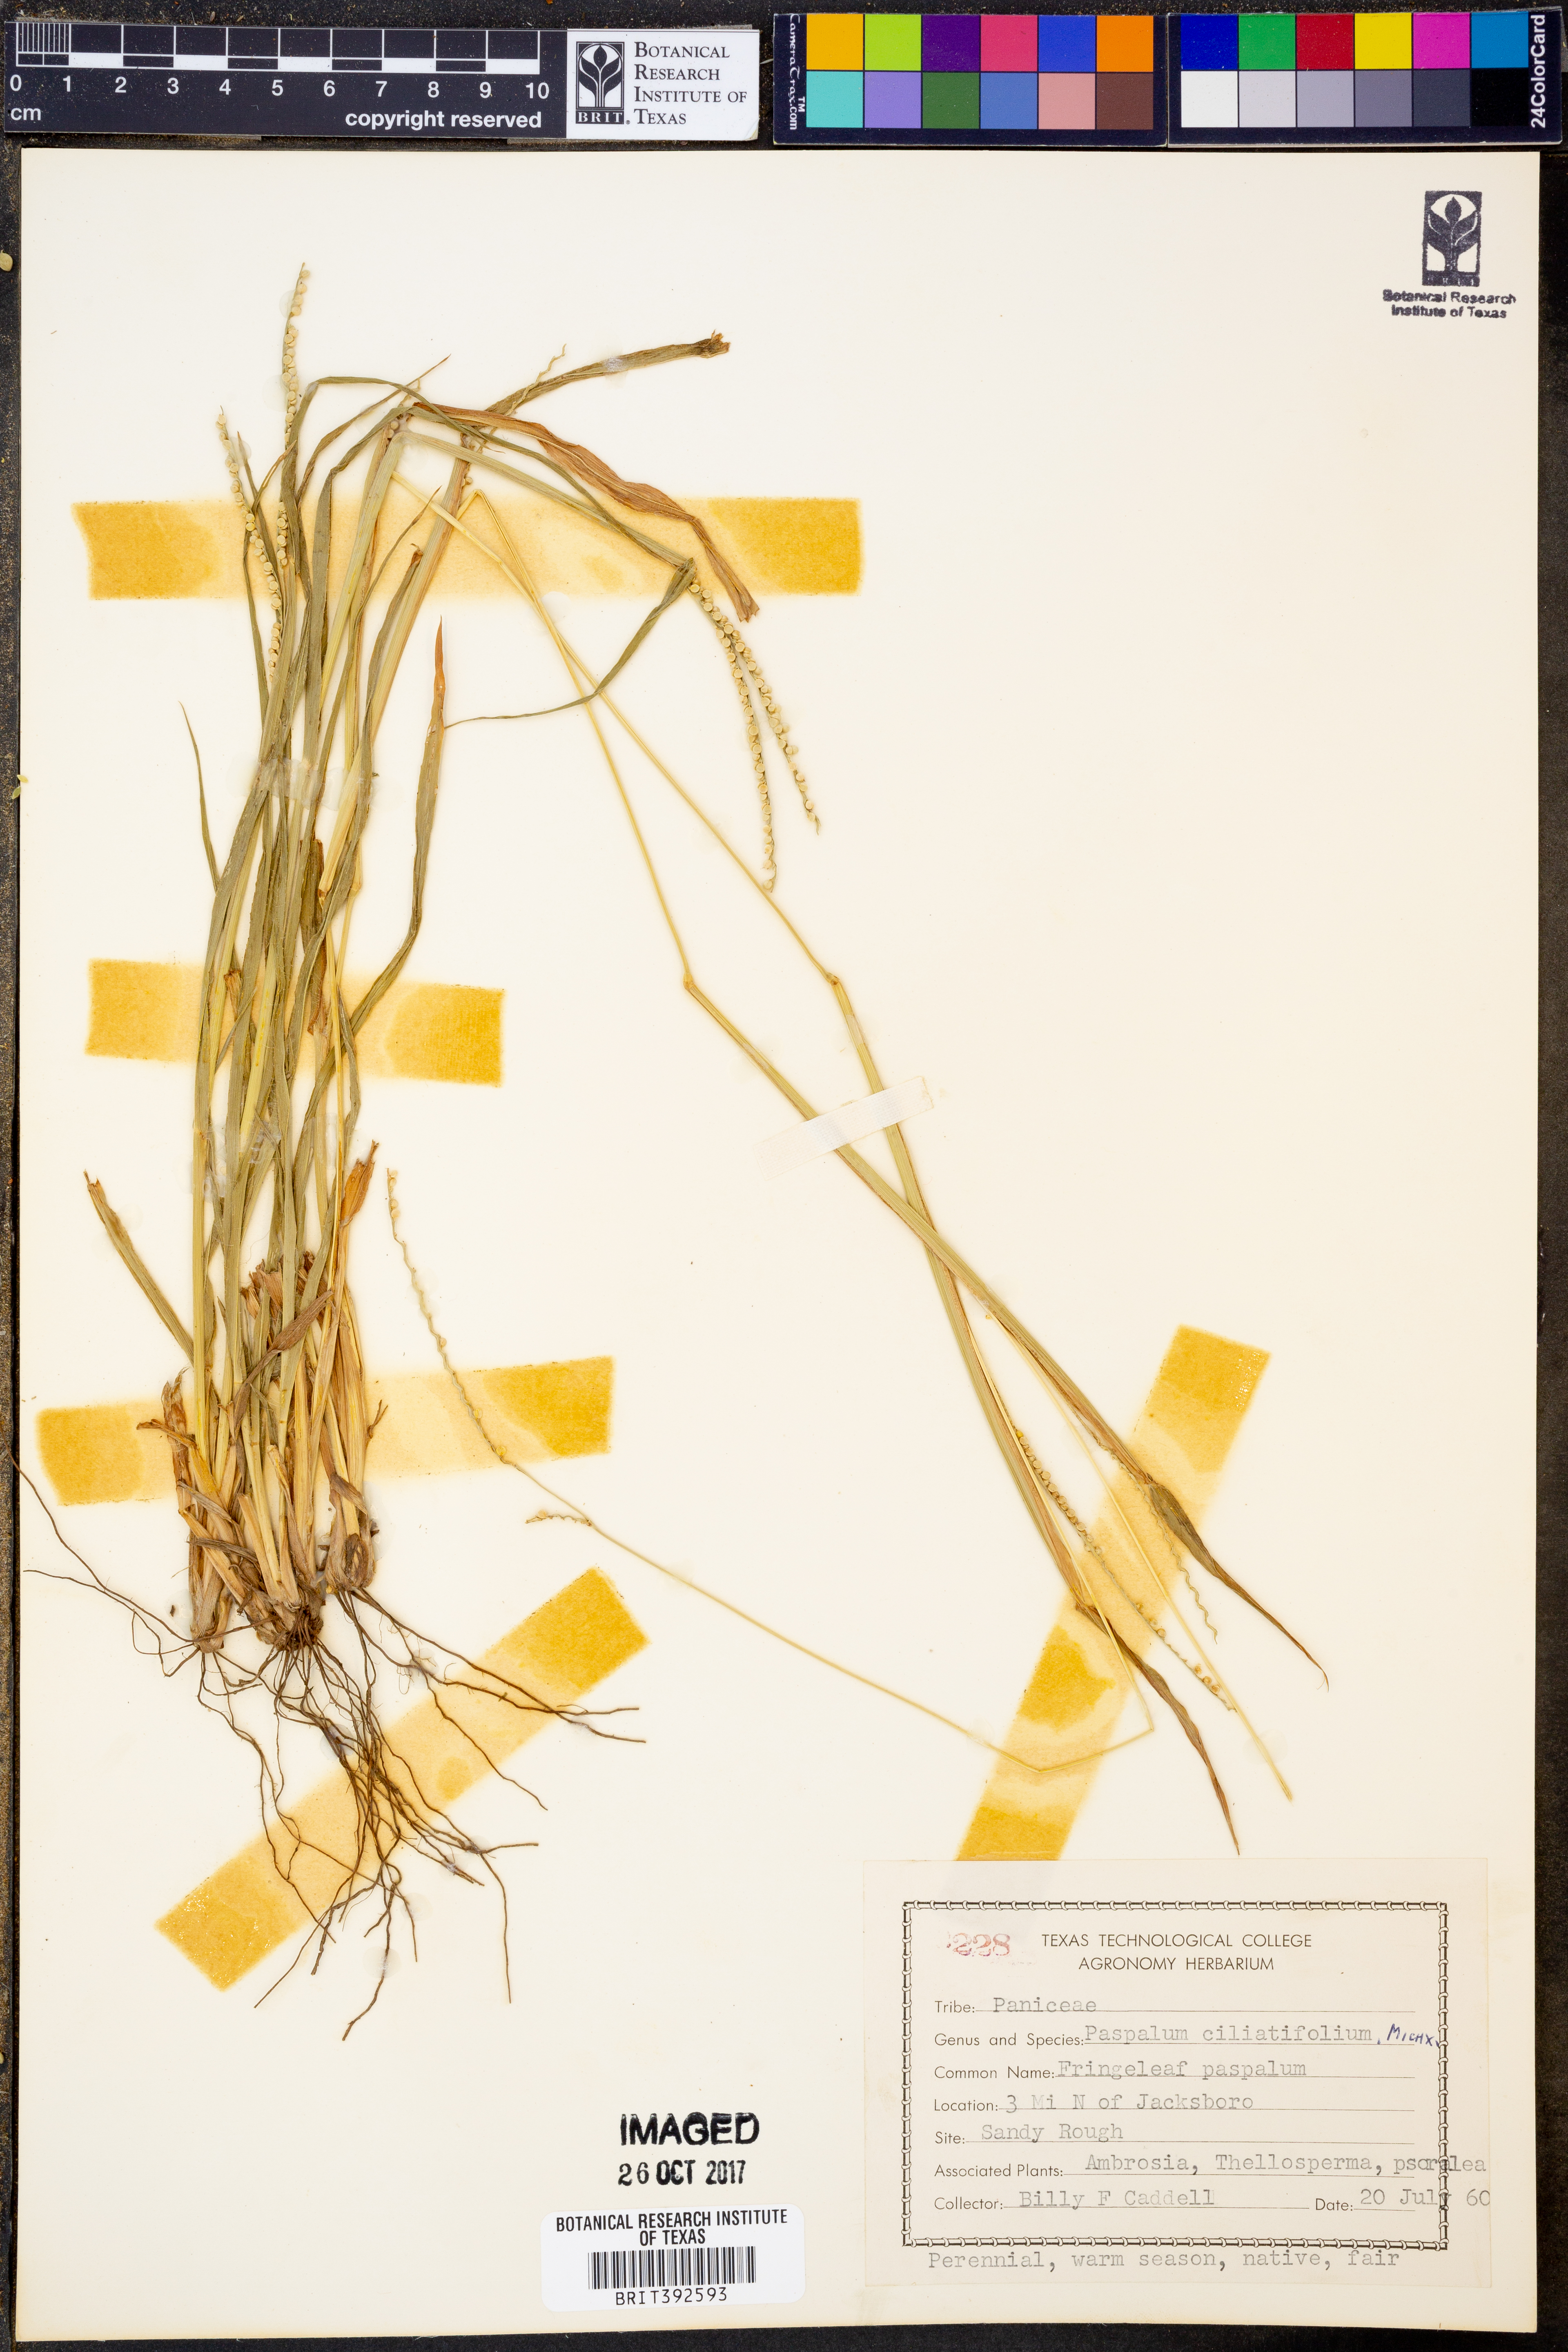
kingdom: Plantae
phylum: Tracheophyta
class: Liliopsida
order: Poales
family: Poaceae
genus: Paspalum
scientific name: Paspalum setaceum
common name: Slender paspalum
